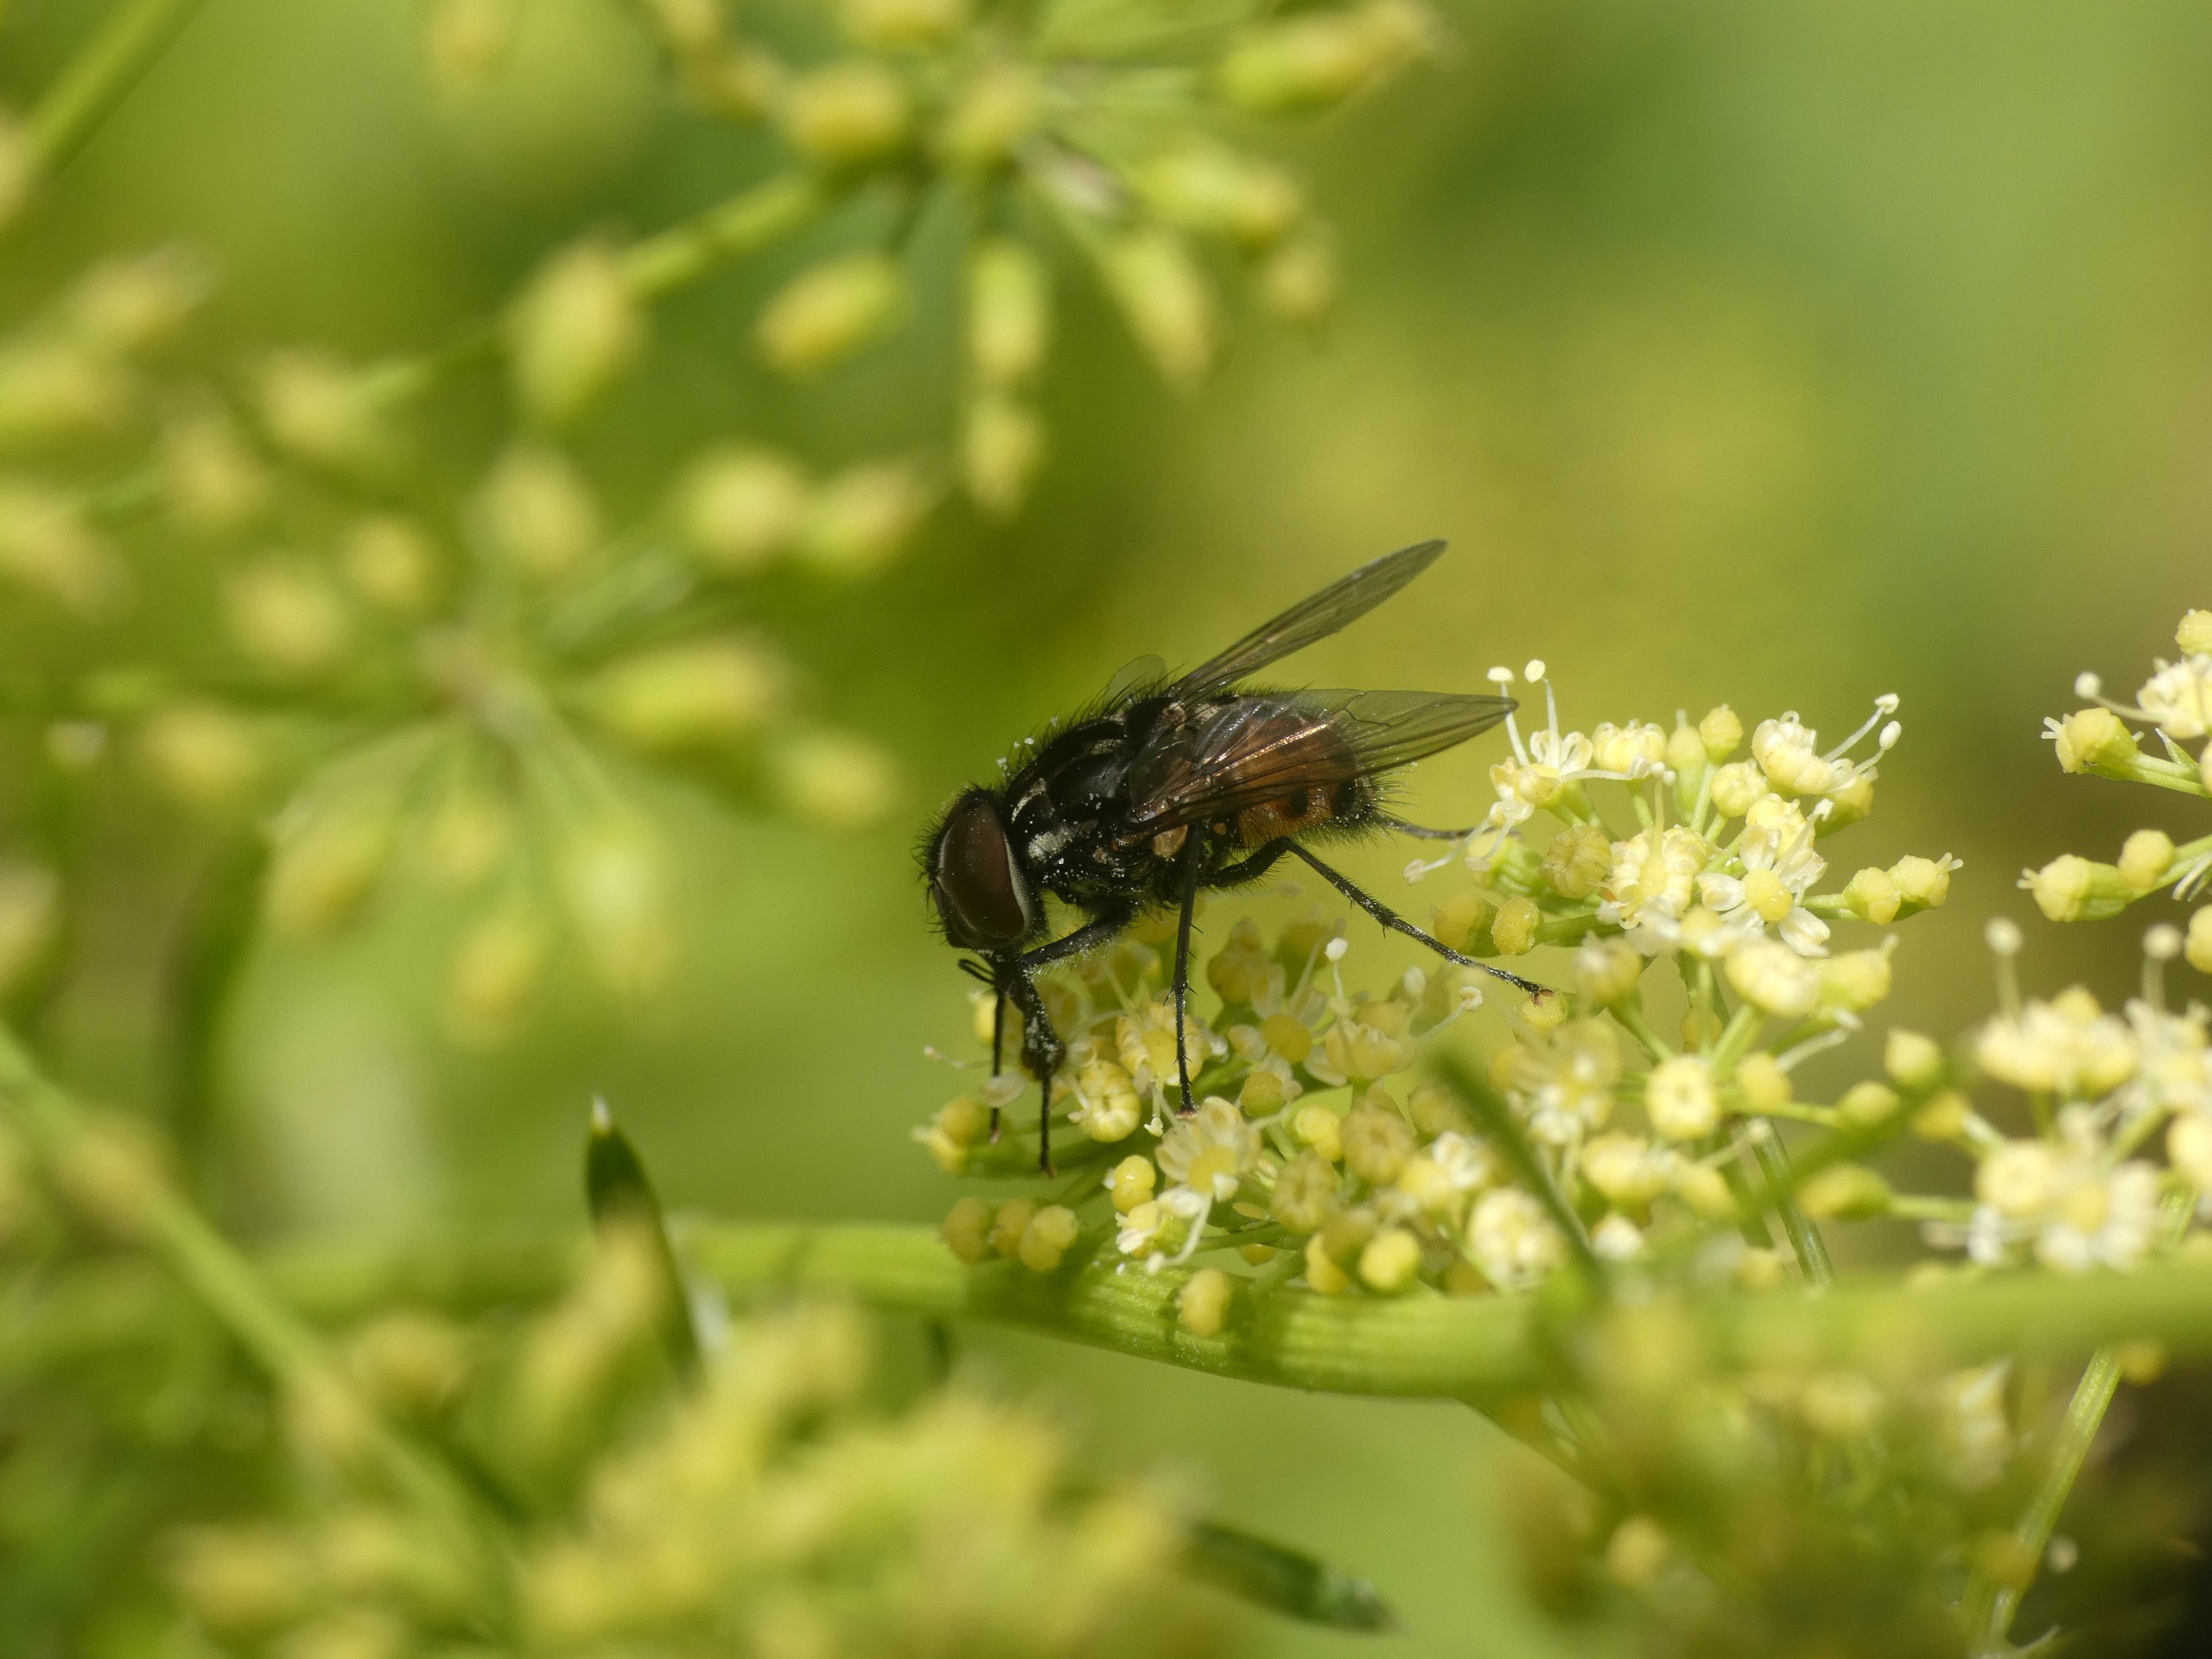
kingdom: Animalia
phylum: Arthropoda
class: Insecta
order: Diptera
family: Muscidae
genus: Graphomya
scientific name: Graphomya maculata
